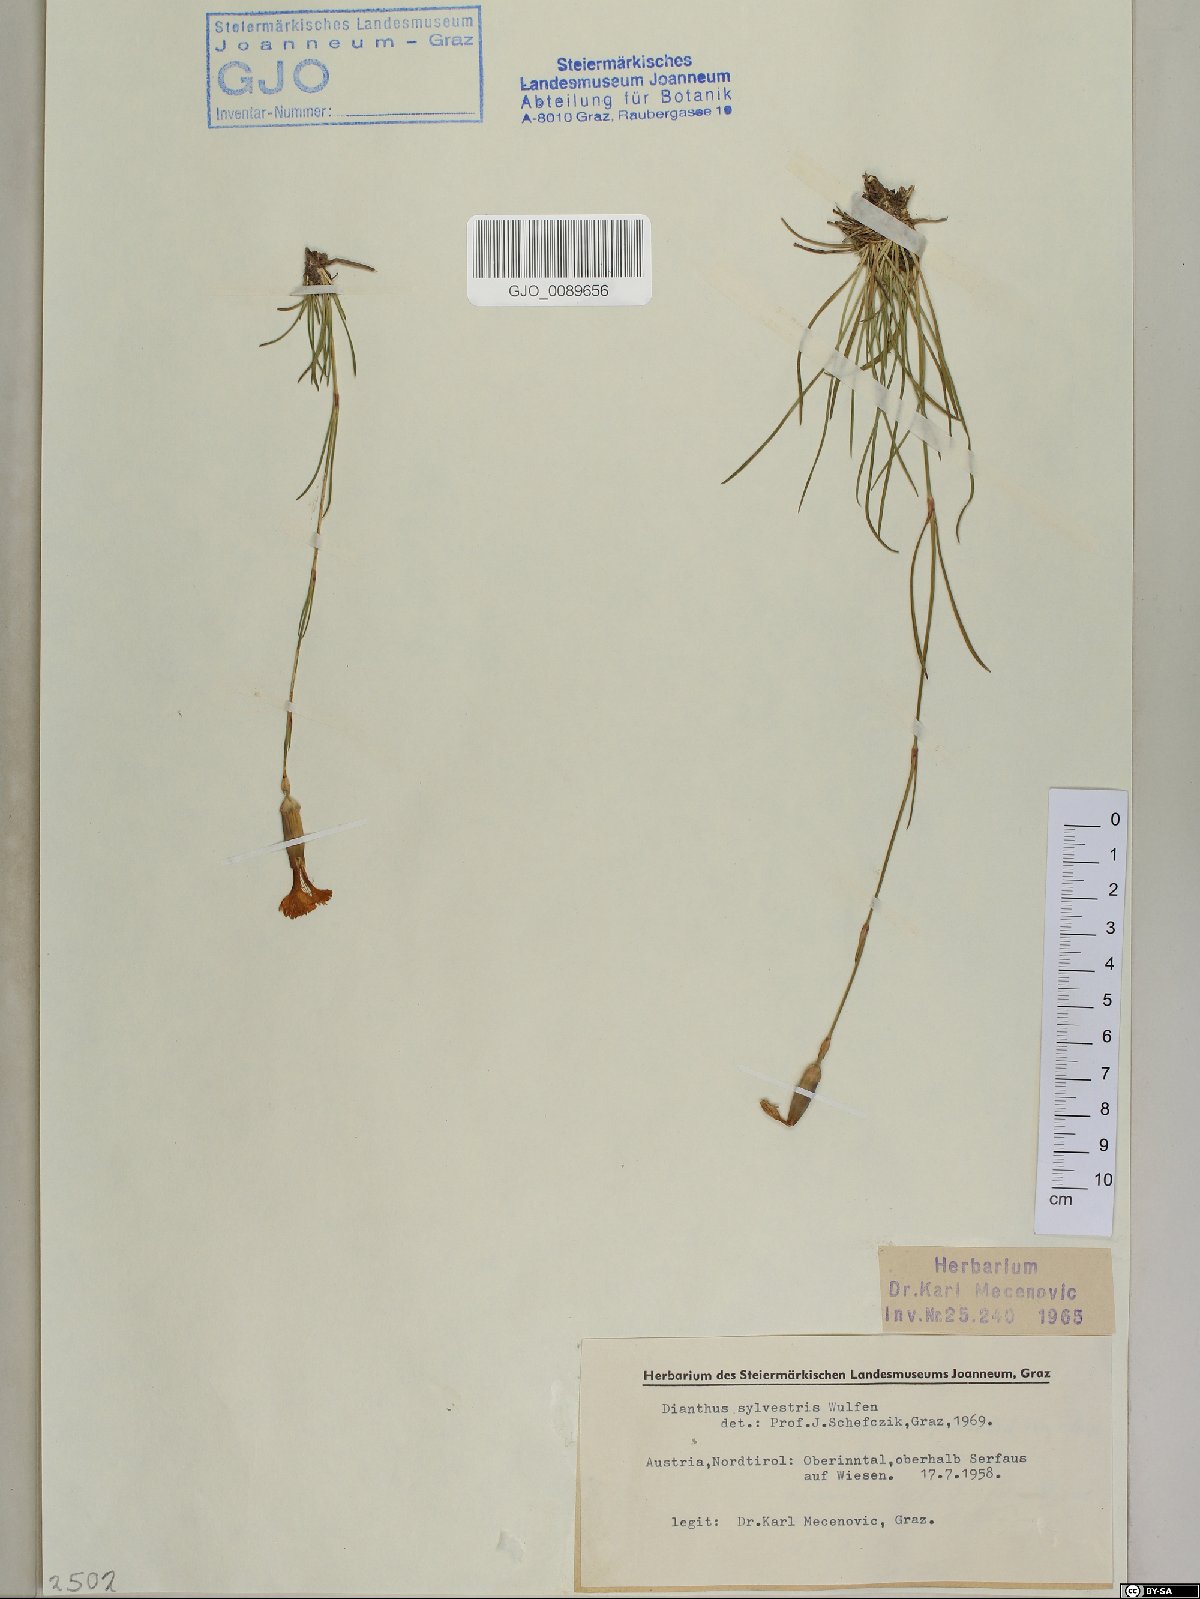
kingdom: Plantae
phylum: Tracheophyta
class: Magnoliopsida
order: Caryophyllales
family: Caryophyllaceae
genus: Dianthus
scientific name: Dianthus sylvestris
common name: Wood pink
